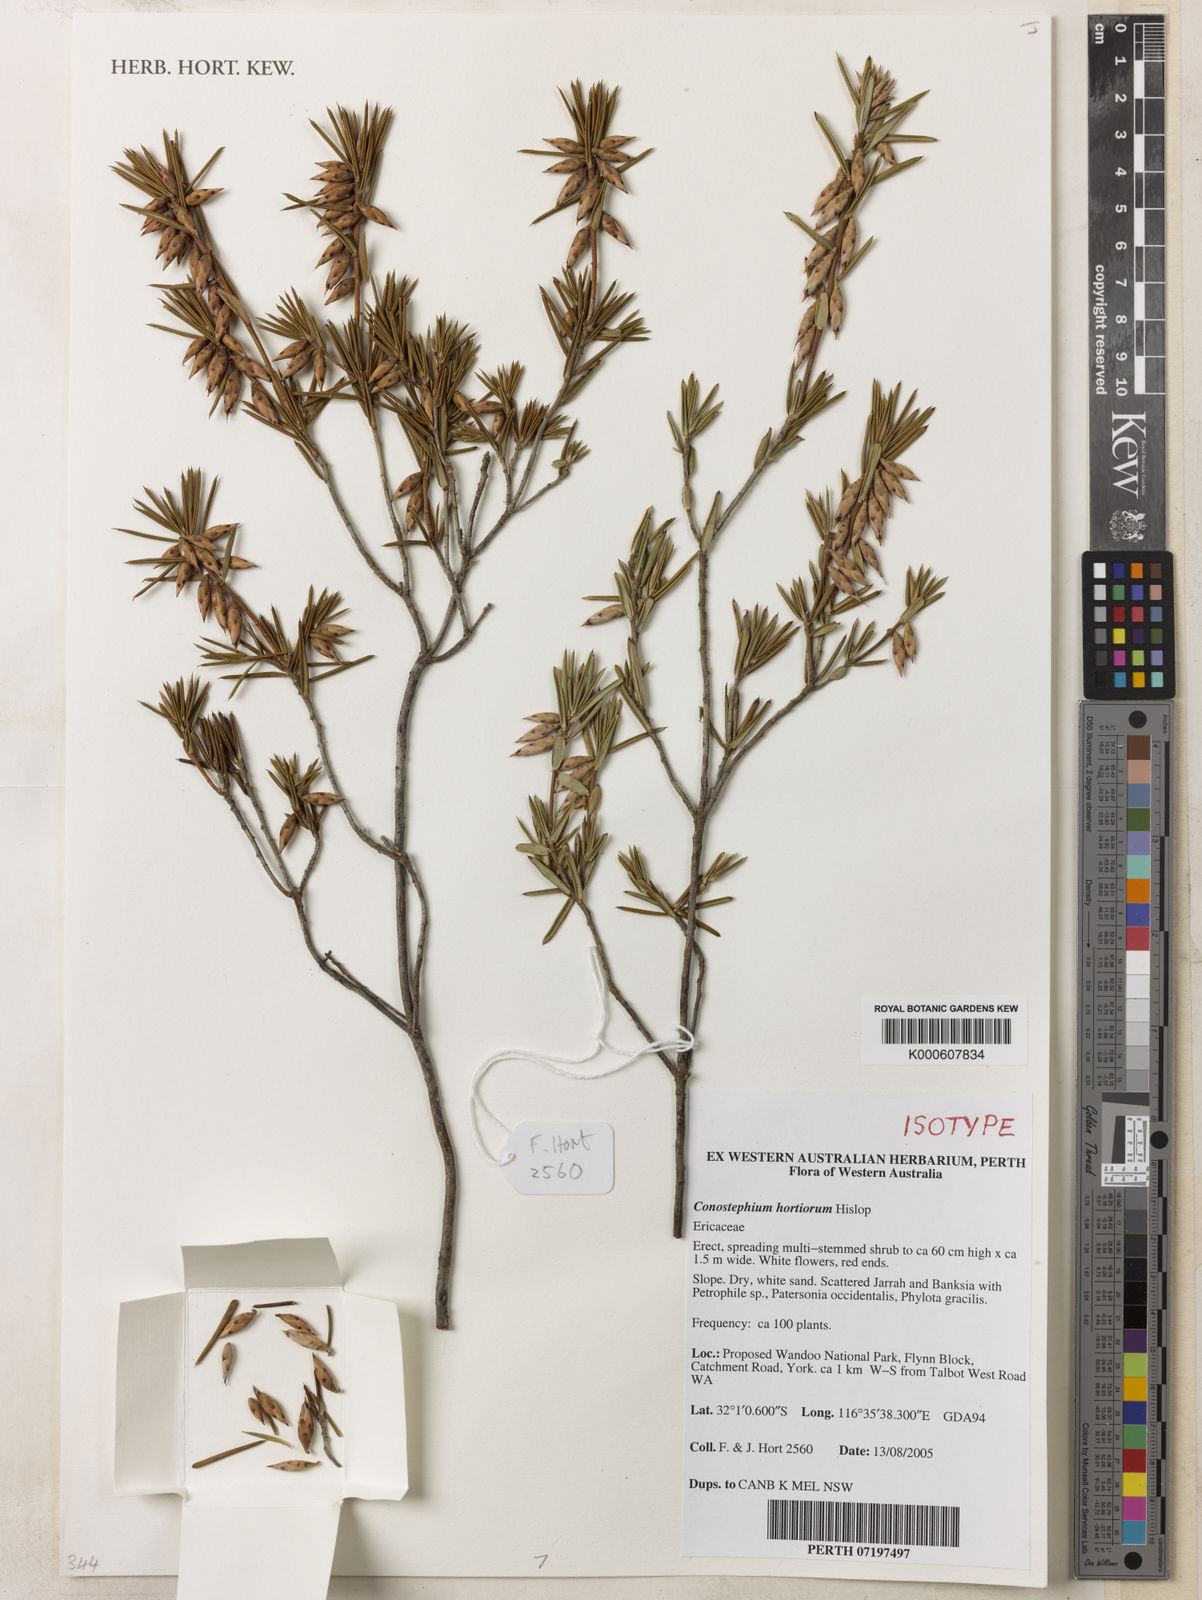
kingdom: Plantae
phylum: Tracheophyta
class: Magnoliopsida
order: Ericales
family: Ericaceae
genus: Conostephium
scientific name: Conostephium hortiorum
